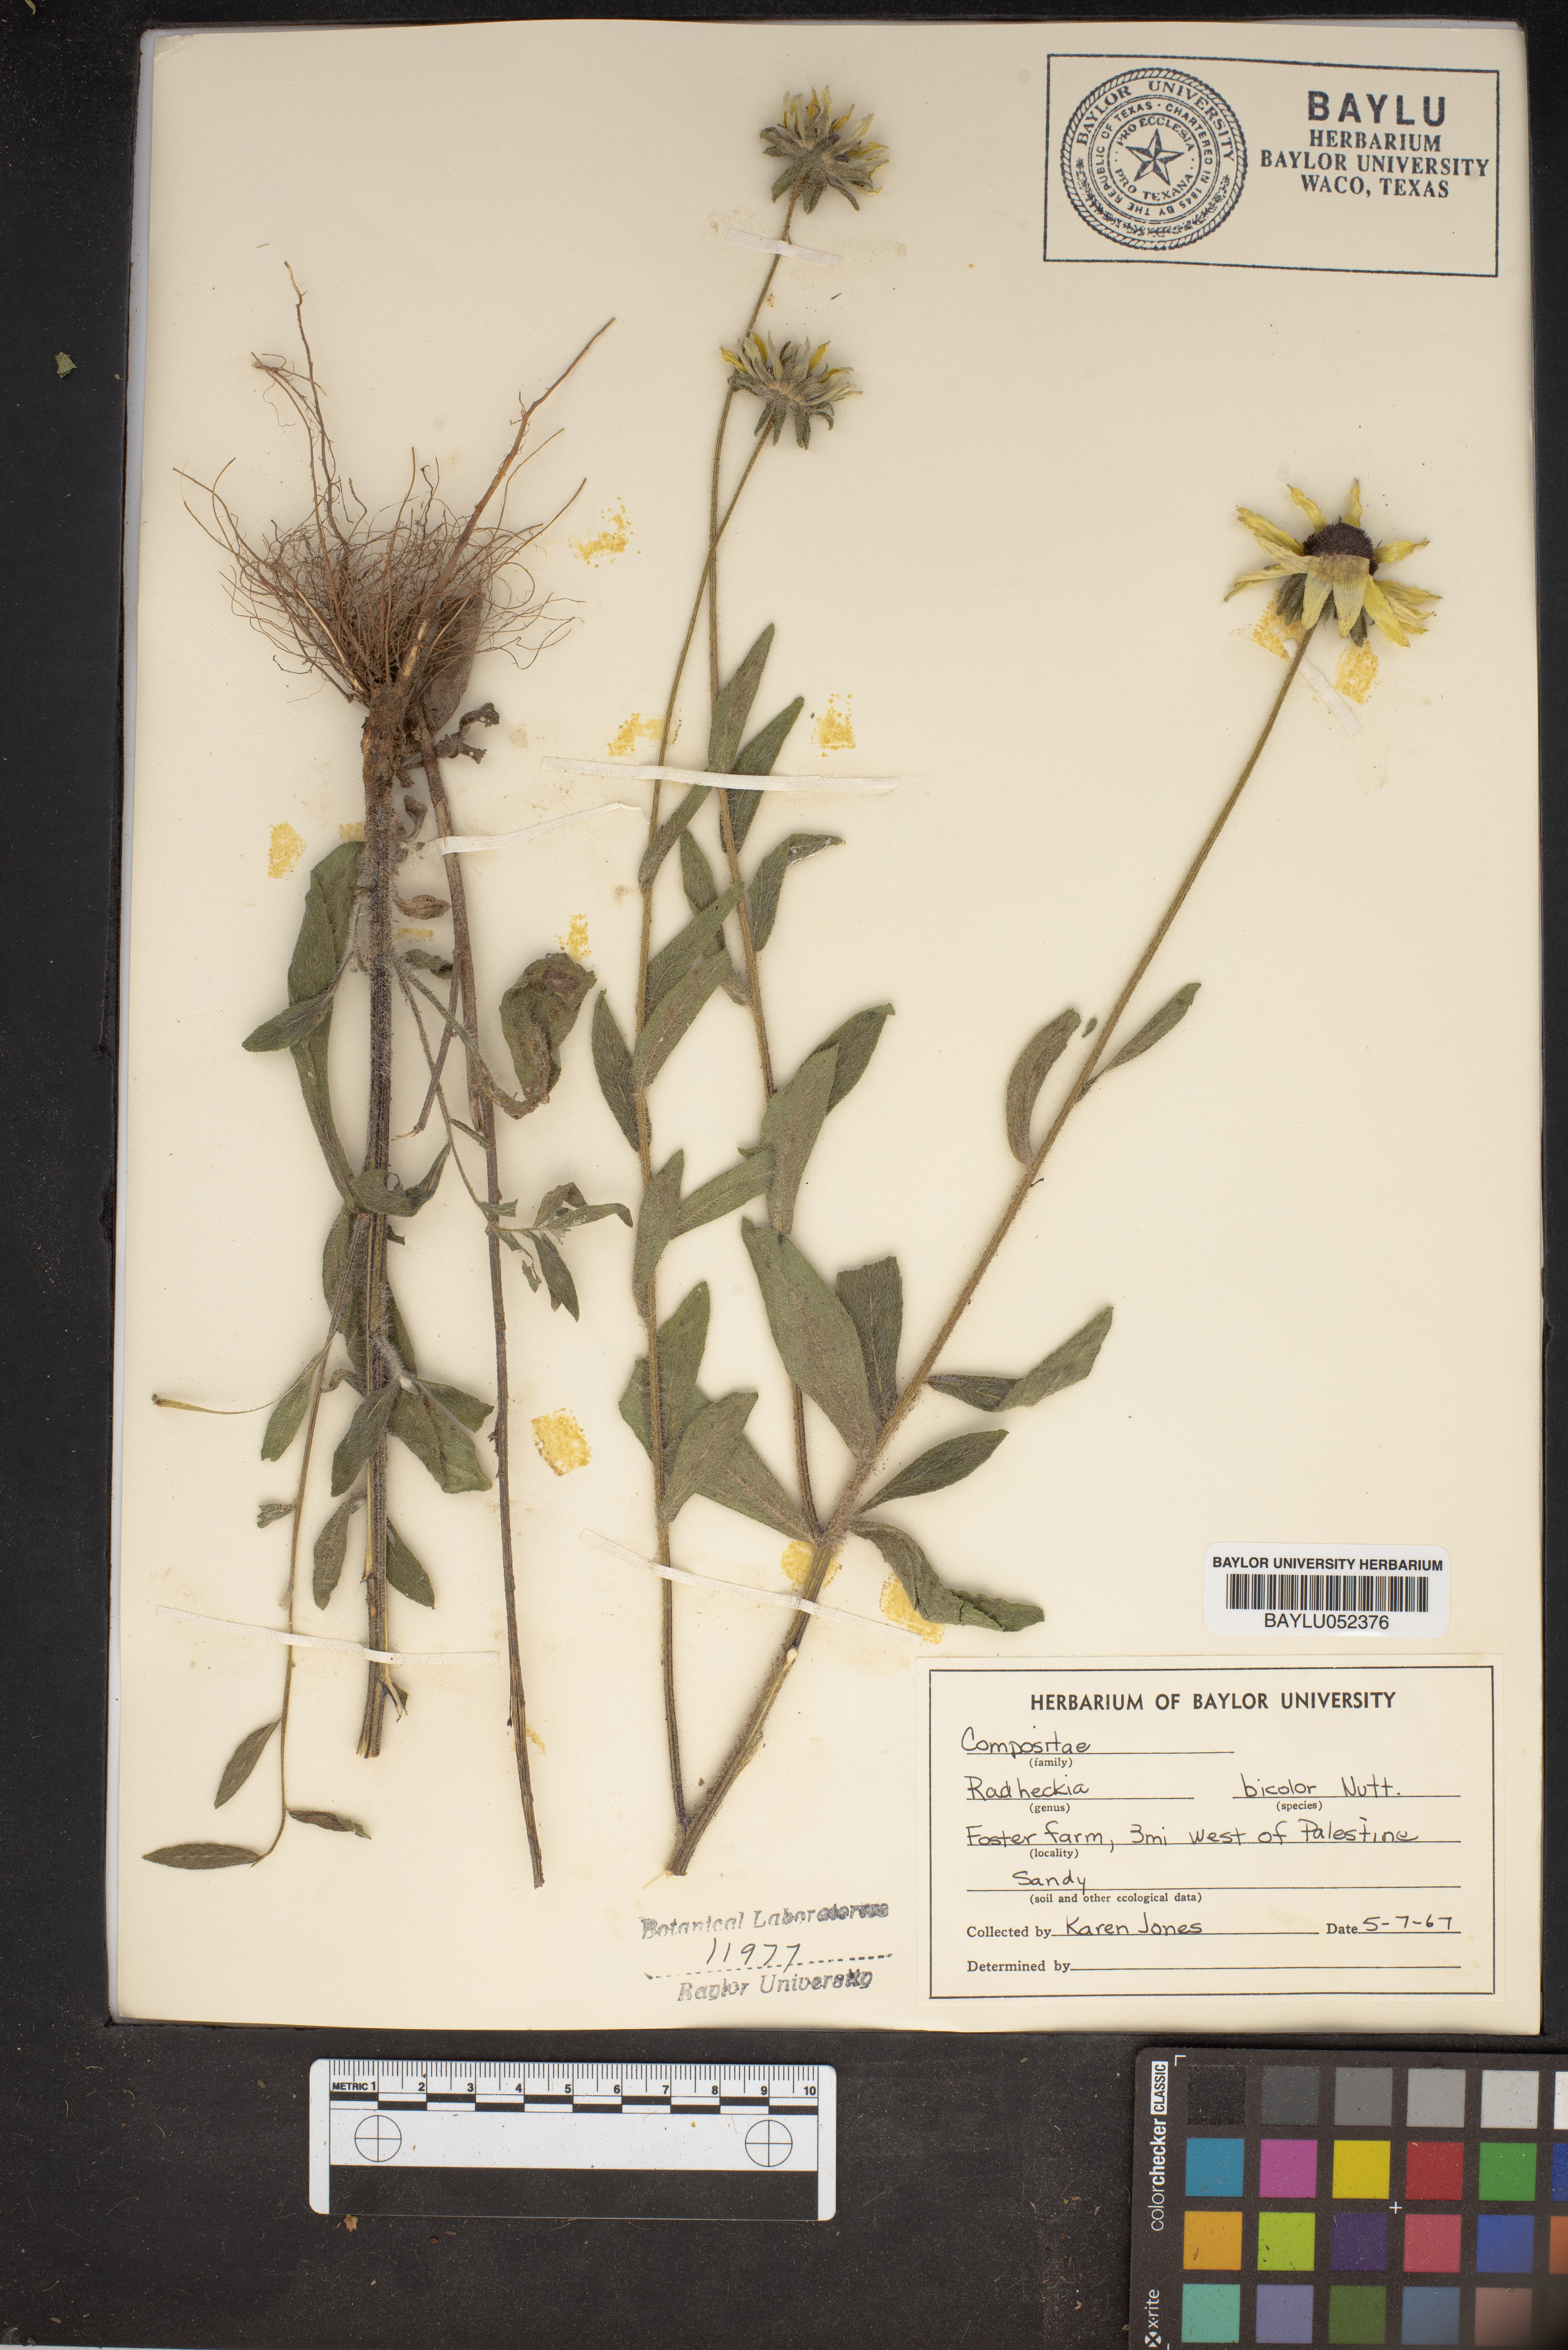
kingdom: Plantae
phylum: Tracheophyta
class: Magnoliopsida
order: Asterales
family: Asteraceae
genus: Rudbeckia
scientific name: Rudbeckia hirta
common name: Black-eyed-susan
